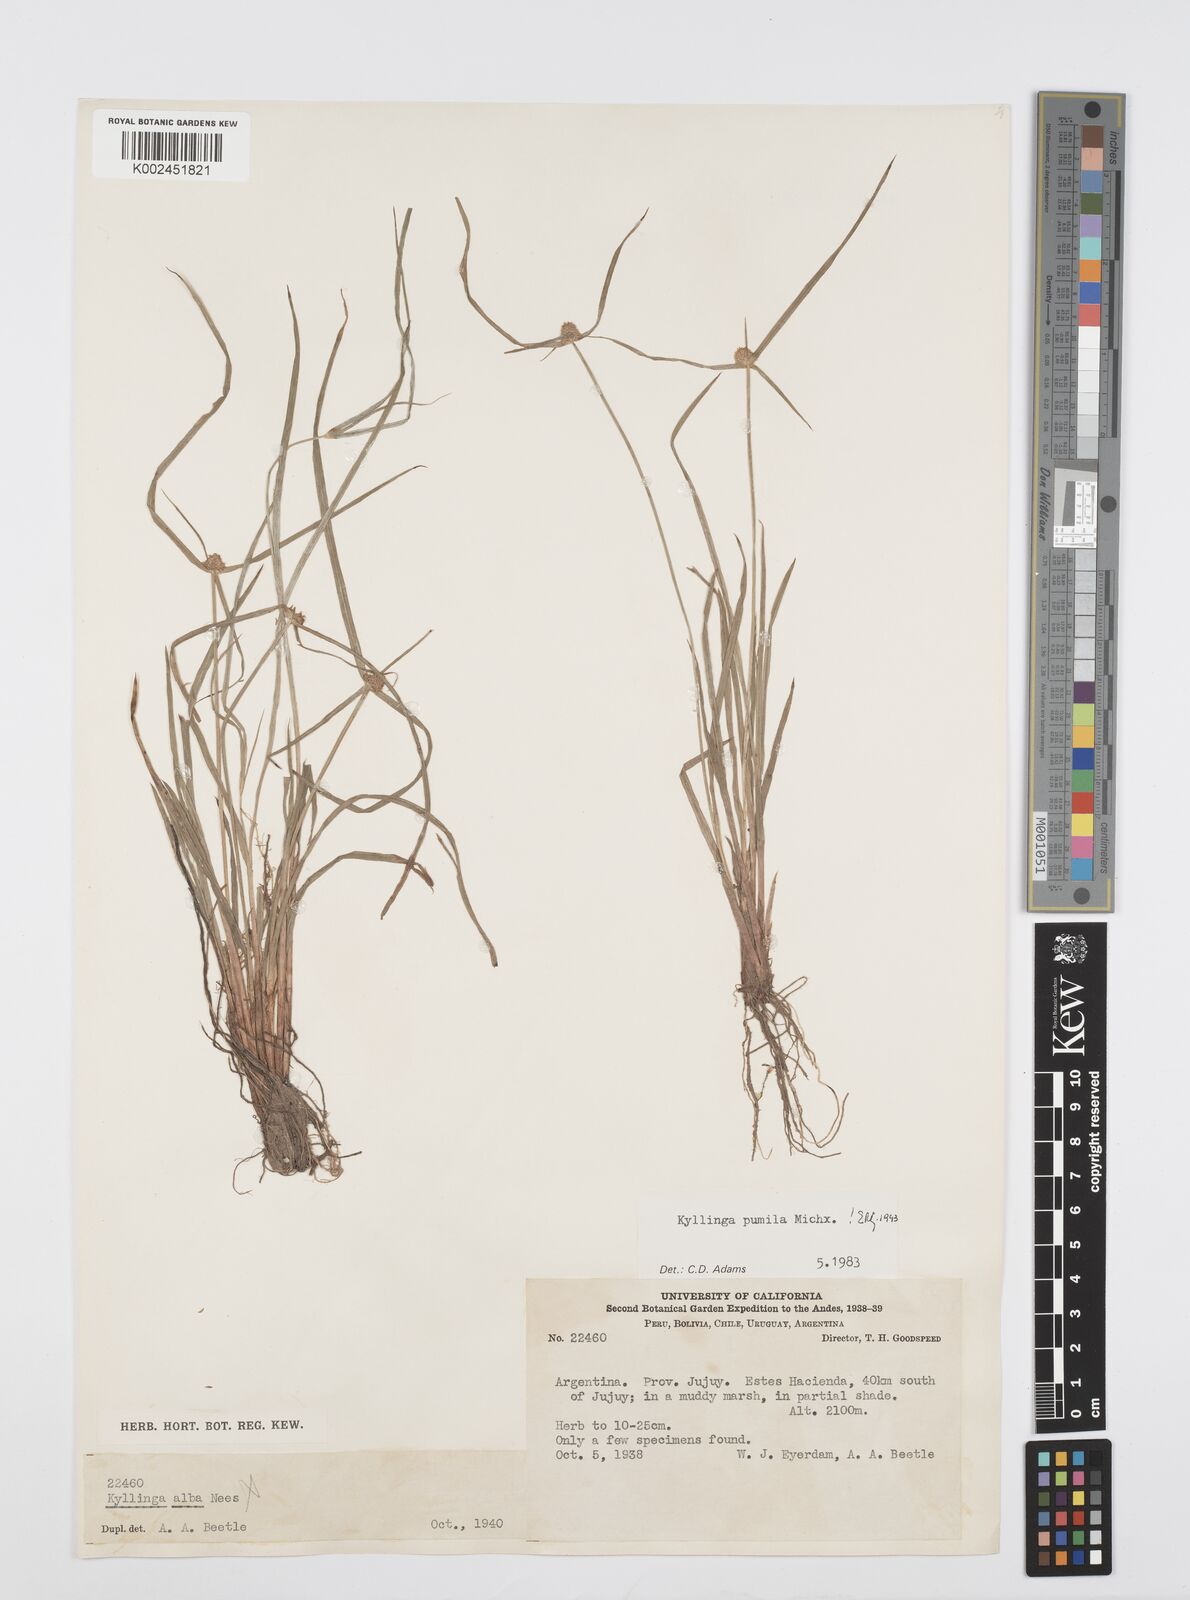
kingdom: Plantae
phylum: Tracheophyta
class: Liliopsida
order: Poales
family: Cyperaceae
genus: Cyperus
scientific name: Cyperus pumilus
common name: Low flatsedge
